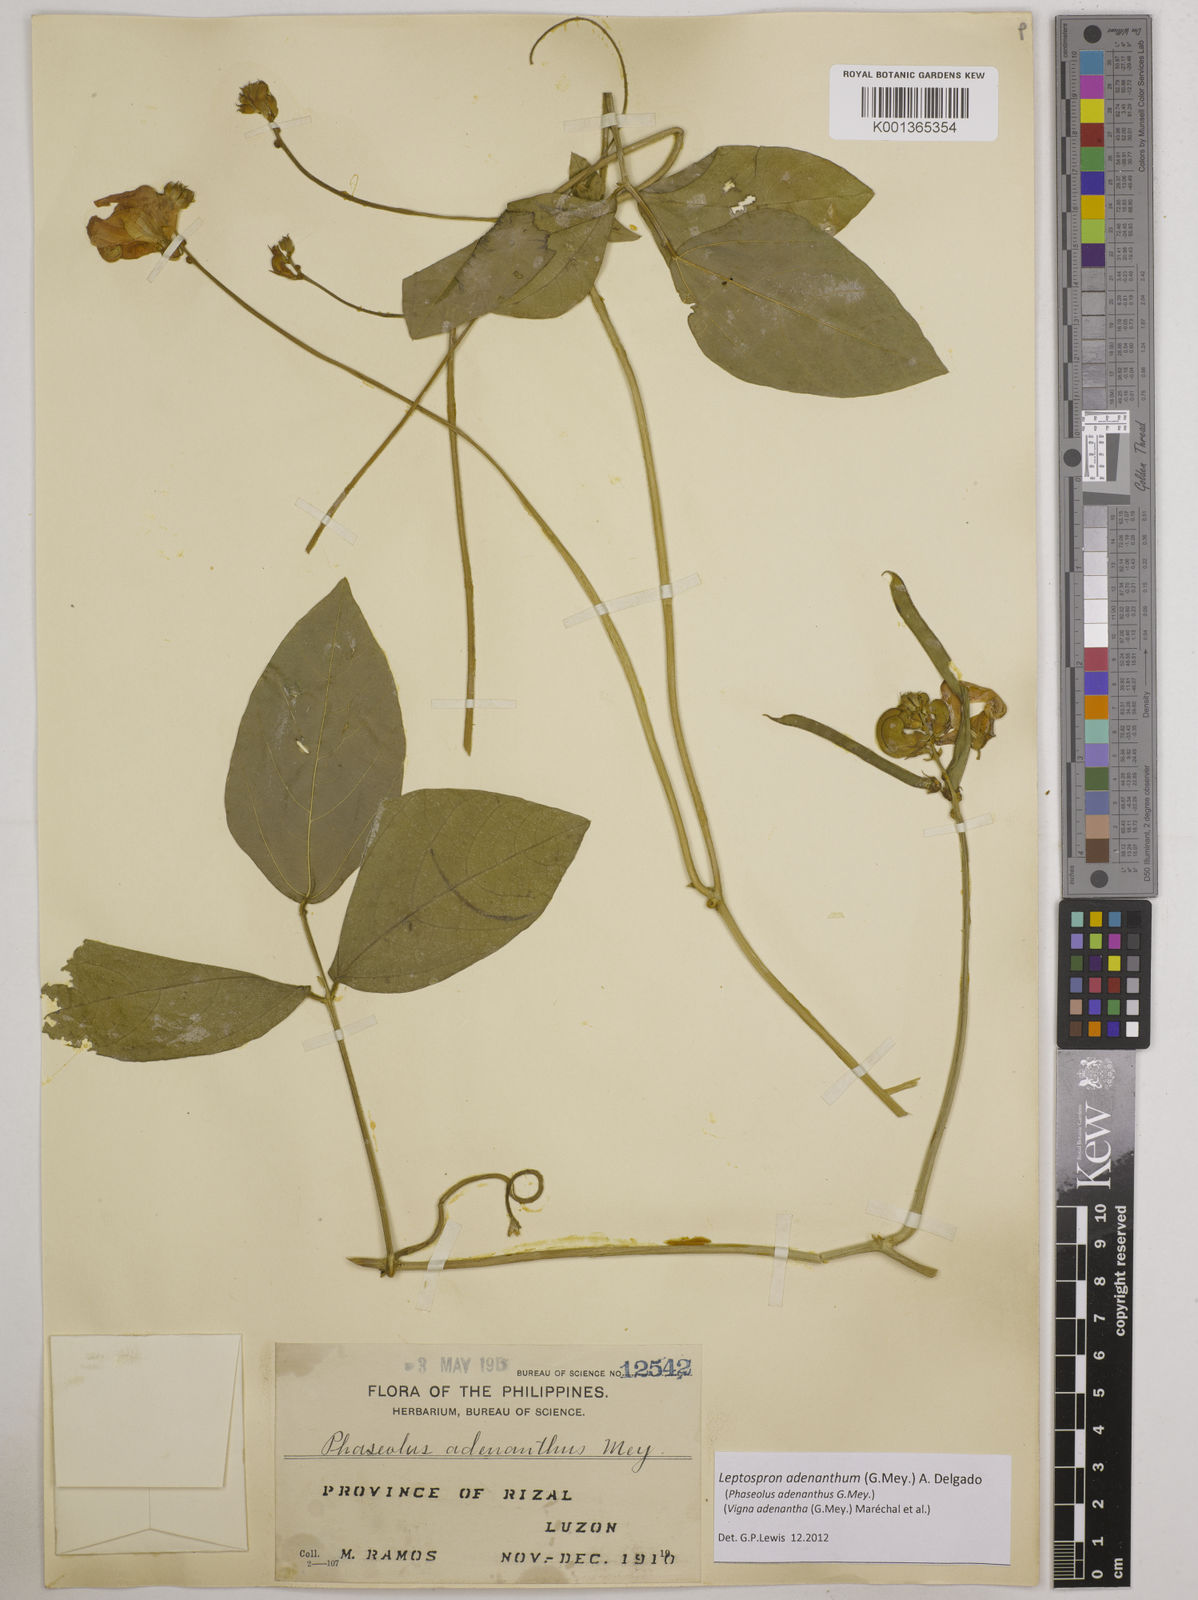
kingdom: Plantae
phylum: Tracheophyta
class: Magnoliopsida
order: Fabales
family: Fabaceae
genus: Leptospron
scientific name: Leptospron adenanthum
